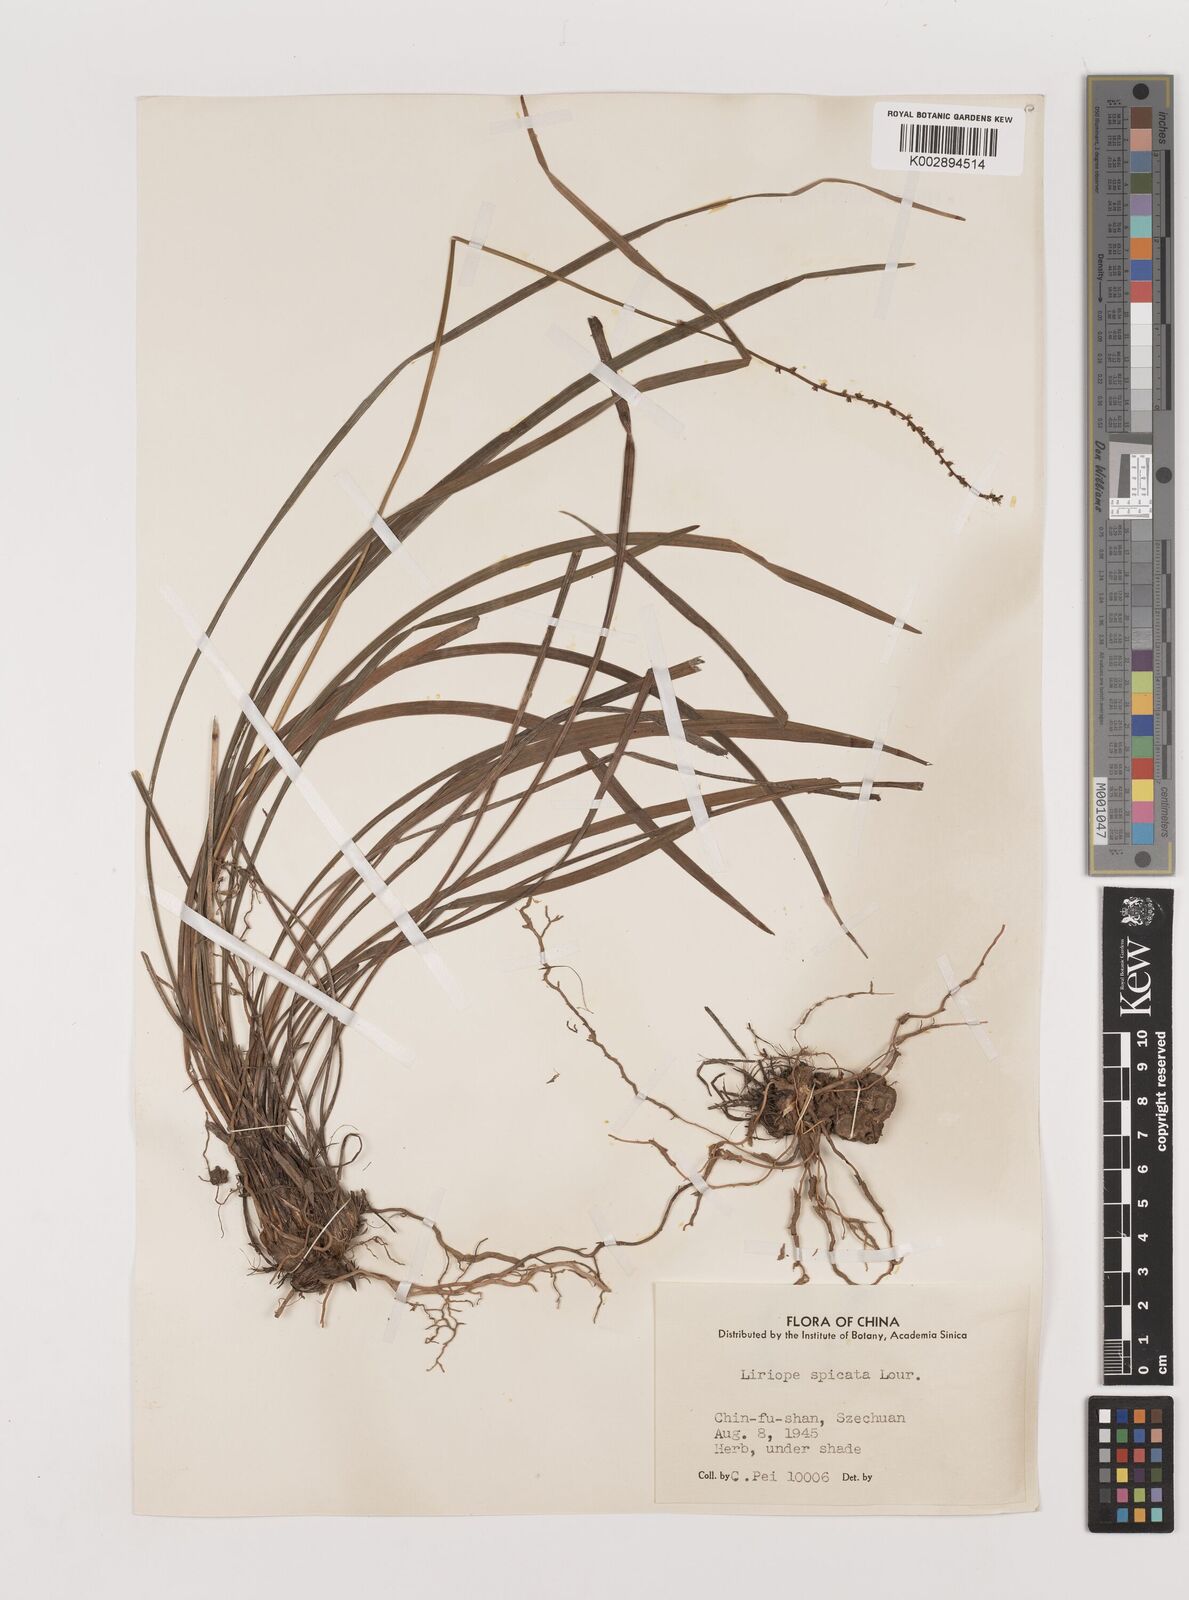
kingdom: Plantae
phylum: Tracheophyta
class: Liliopsida
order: Asparagales
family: Asparagaceae
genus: Liriope
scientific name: Liriope spicata
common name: Creeping liriope
